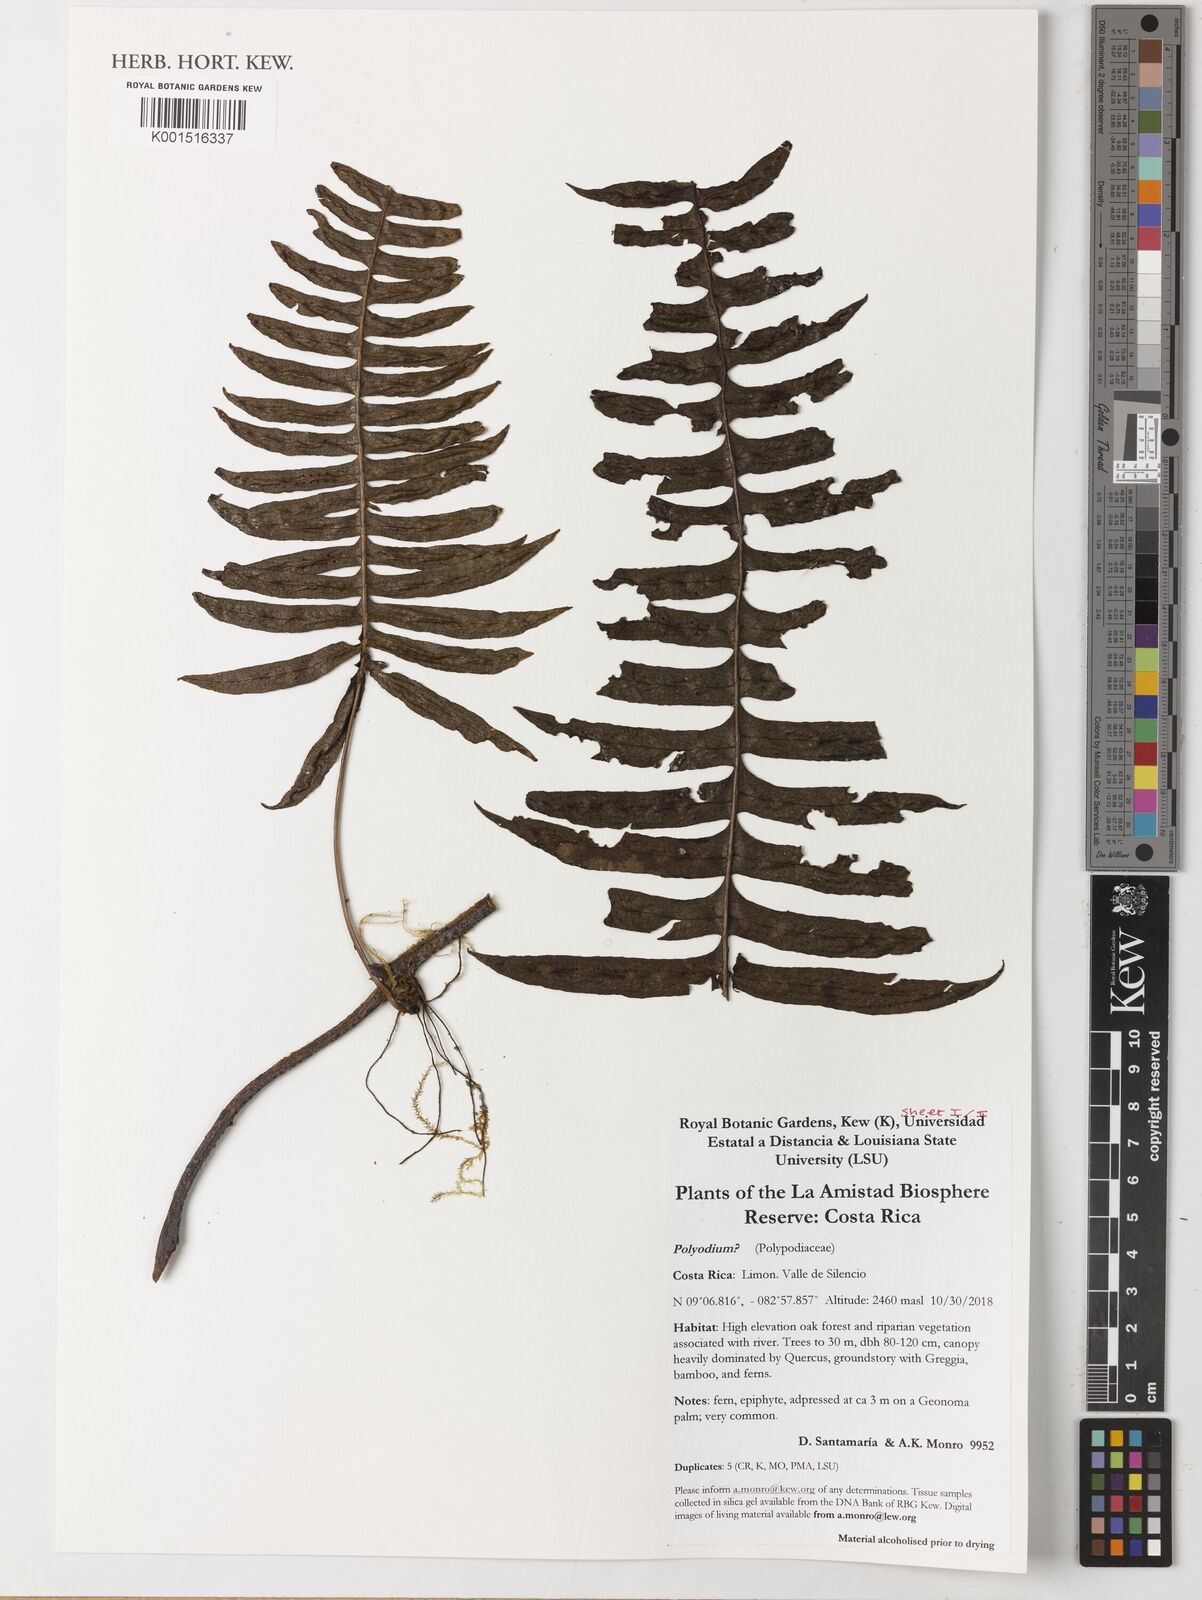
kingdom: Plantae
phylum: Tracheophyta
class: Polypodiopsida
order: Polypodiales
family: Polypodiaceae
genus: Polypodium
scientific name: Polypodium
